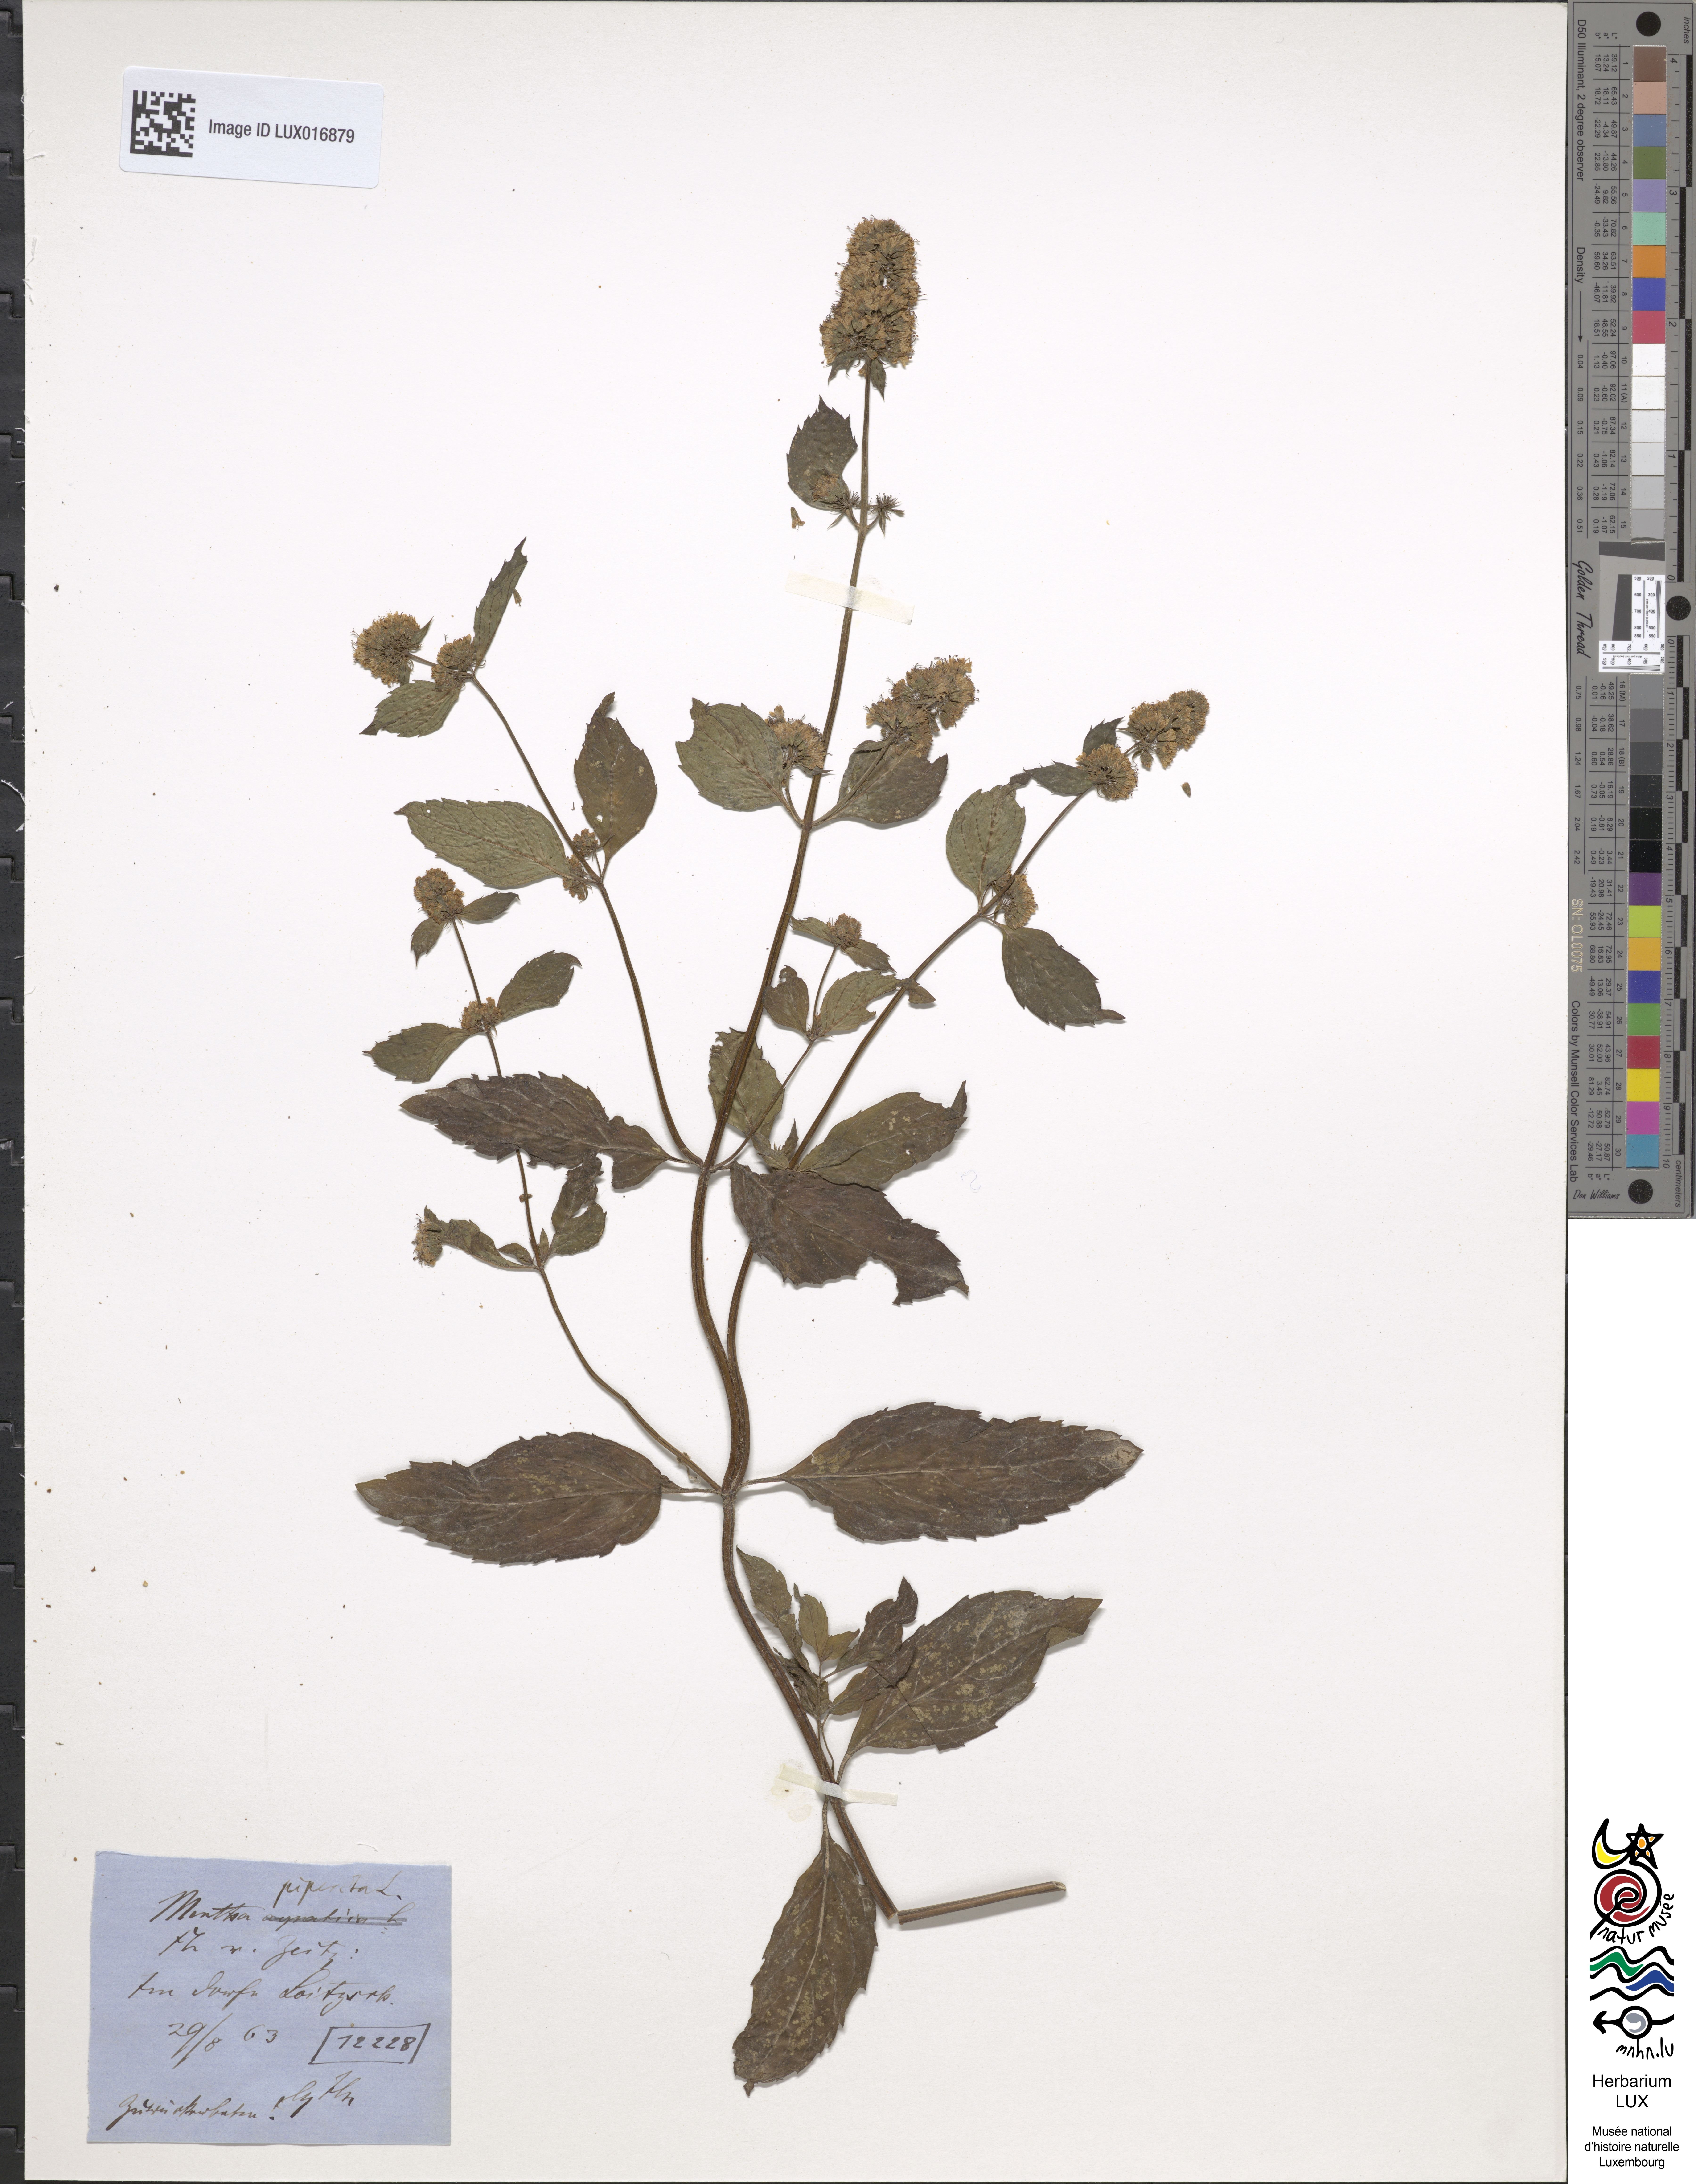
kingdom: Plantae
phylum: Tracheophyta
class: Magnoliopsida
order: Lamiales
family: Lamiaceae
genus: Mentha
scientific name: Mentha piperita
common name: Peppermint
